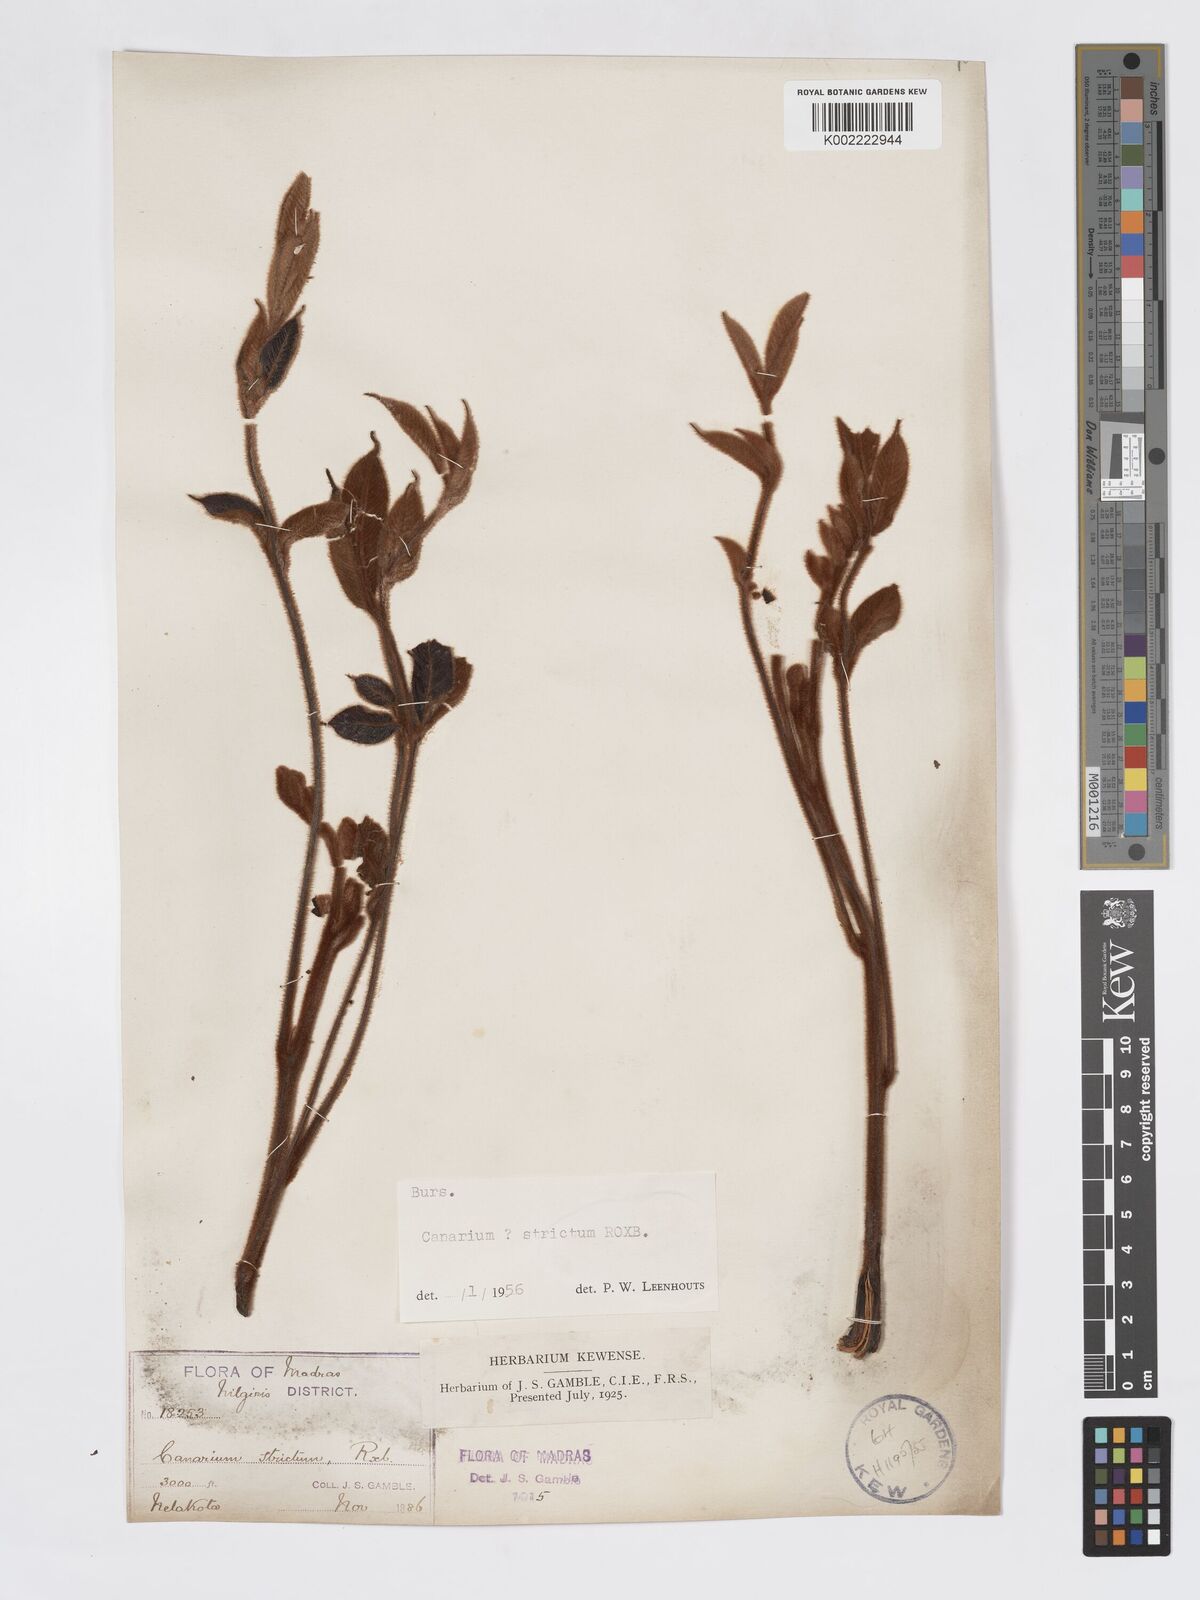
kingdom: Plantae
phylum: Tracheophyta
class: Magnoliopsida
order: Sapindales
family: Burseraceae
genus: Canarium
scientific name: Canarium strictum
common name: Indian white-mahogany
